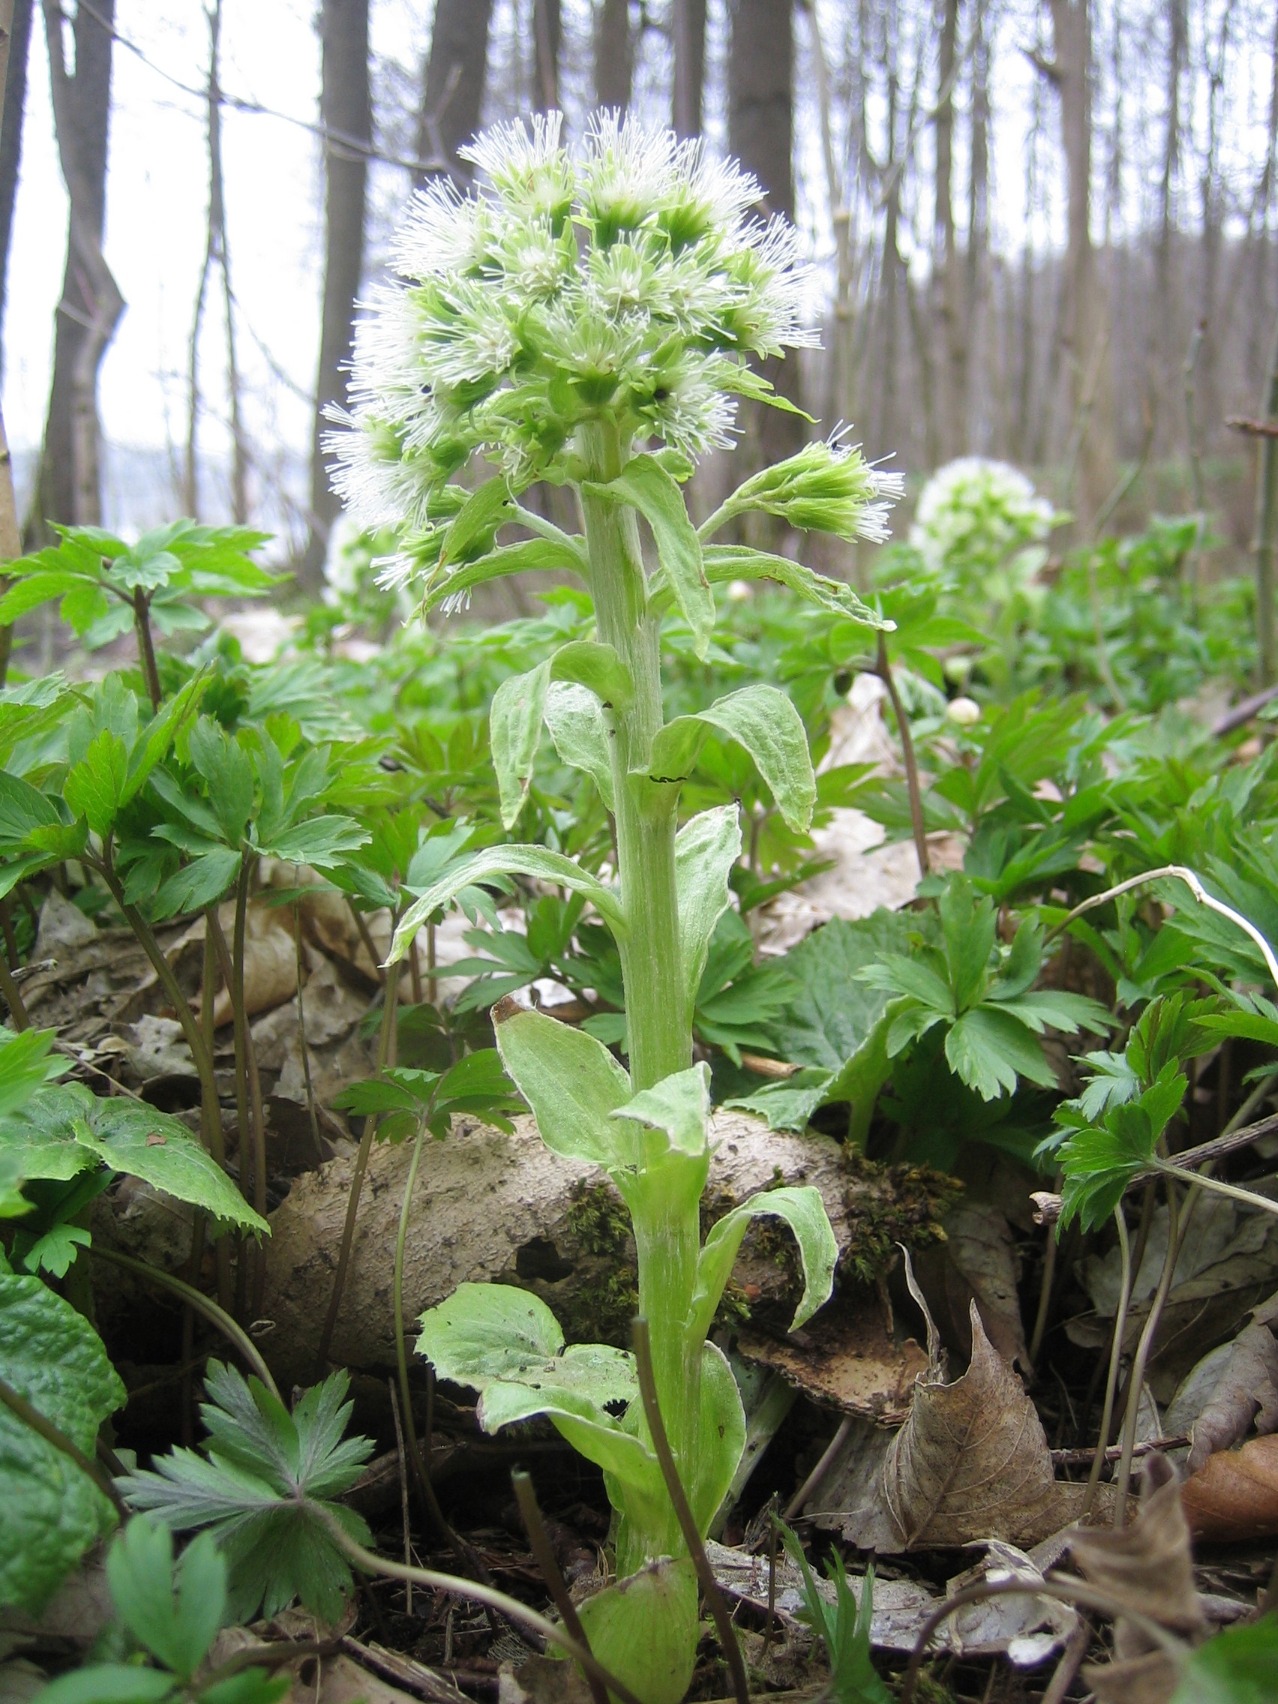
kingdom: Plantae
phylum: Tracheophyta
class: Magnoliopsida
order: Asterales
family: Asteraceae
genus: Petasites
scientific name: Petasites albus
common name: Hvid hestehov
